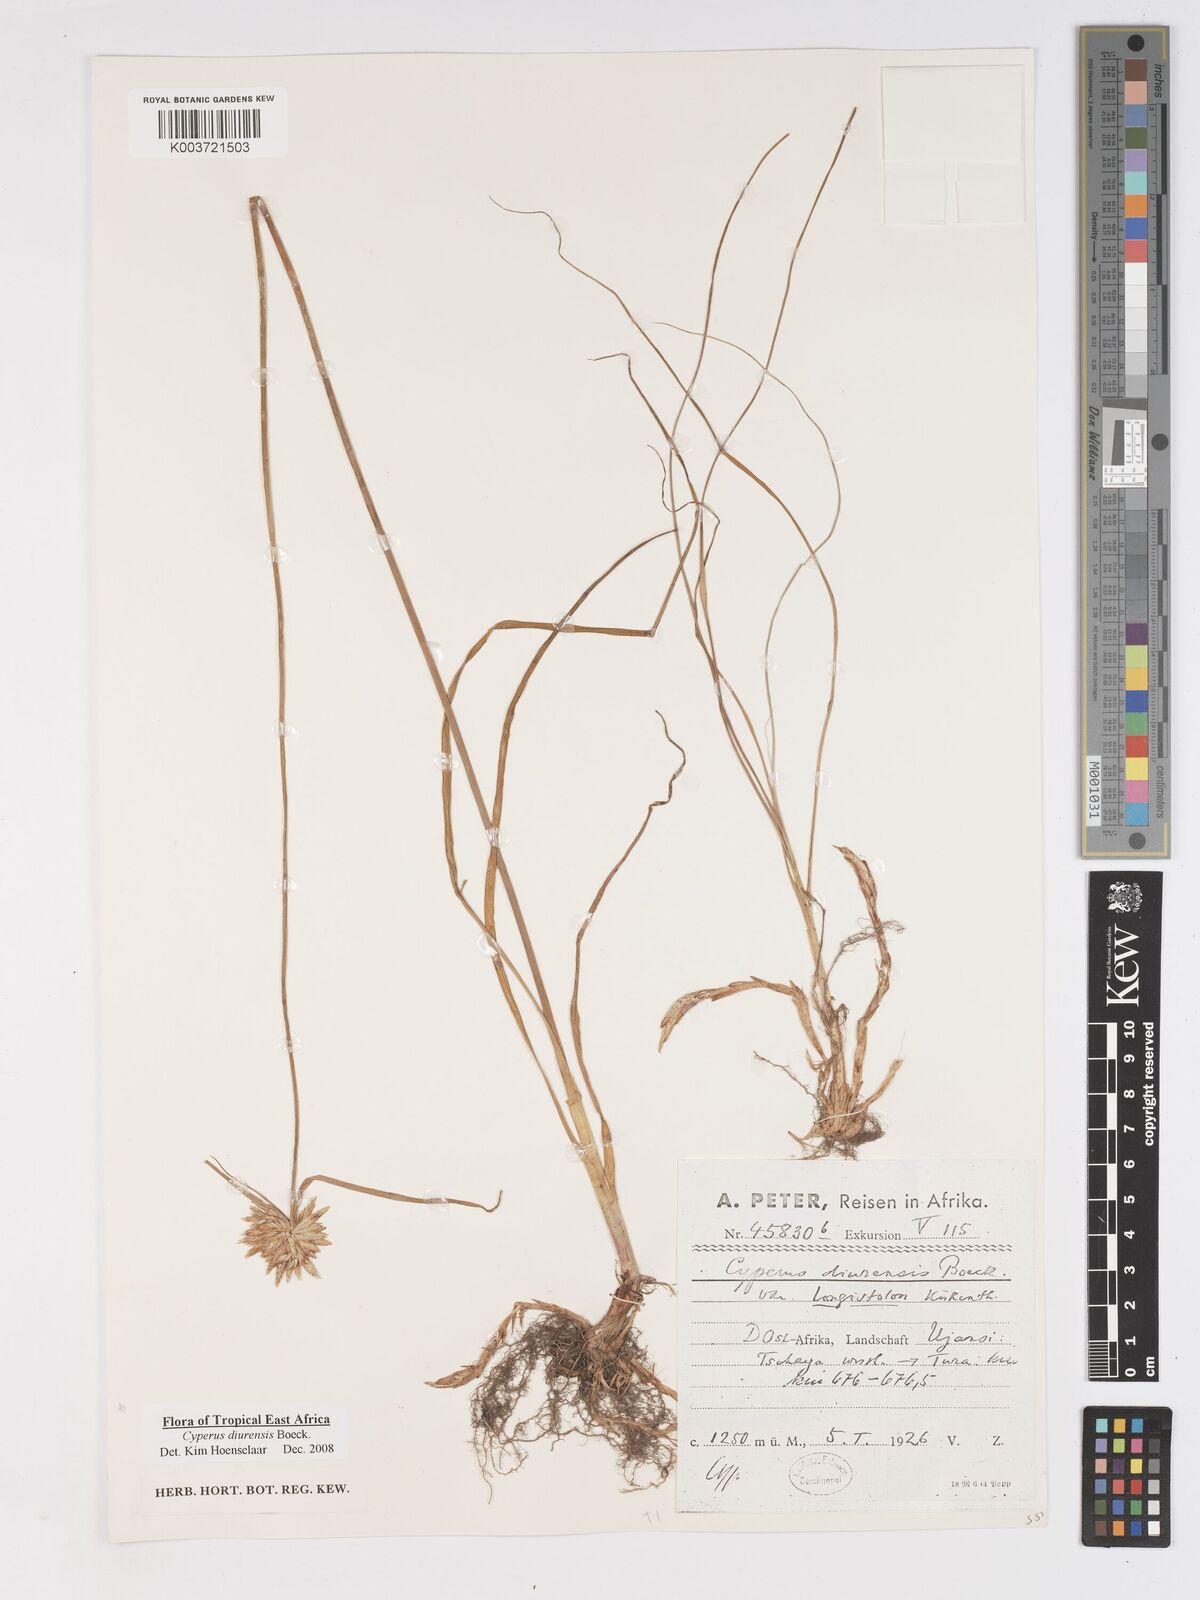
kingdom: Plantae
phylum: Tracheophyta
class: Liliopsida
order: Poales
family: Cyperaceae
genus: Cyperus
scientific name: Cyperus diurensis
